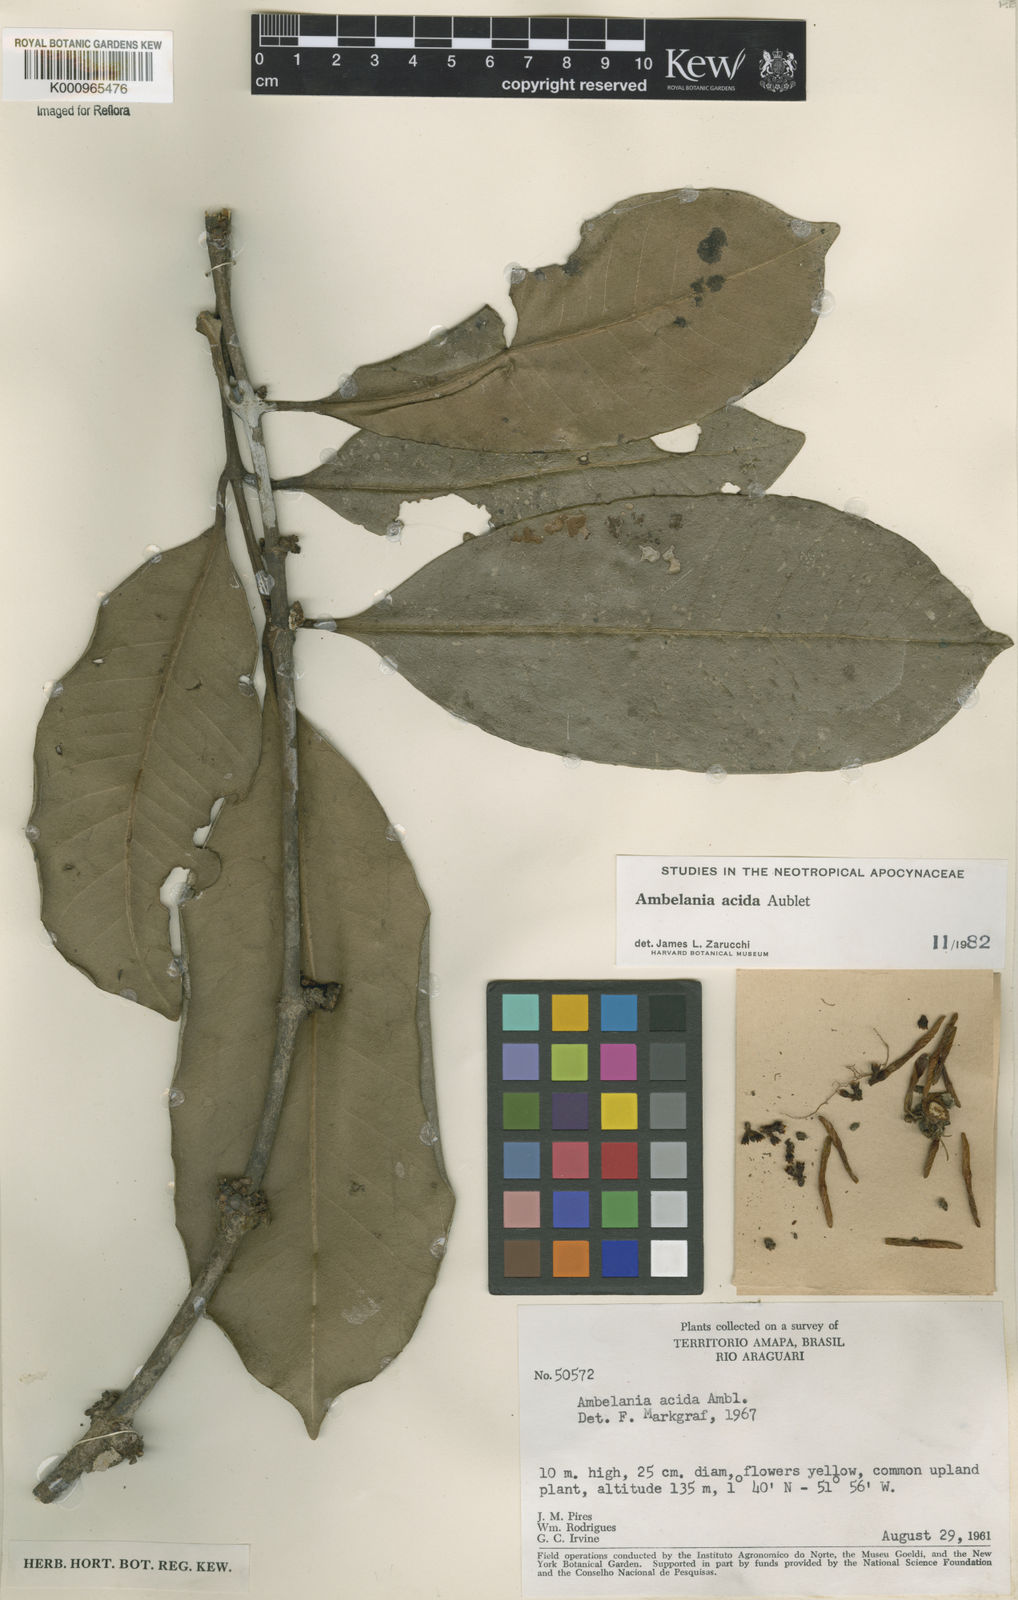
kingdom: Plantae
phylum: Tracheophyta
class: Magnoliopsida
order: Gentianales
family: Apocynaceae
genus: Ambelania
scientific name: Ambelania acida
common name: Bagasse
